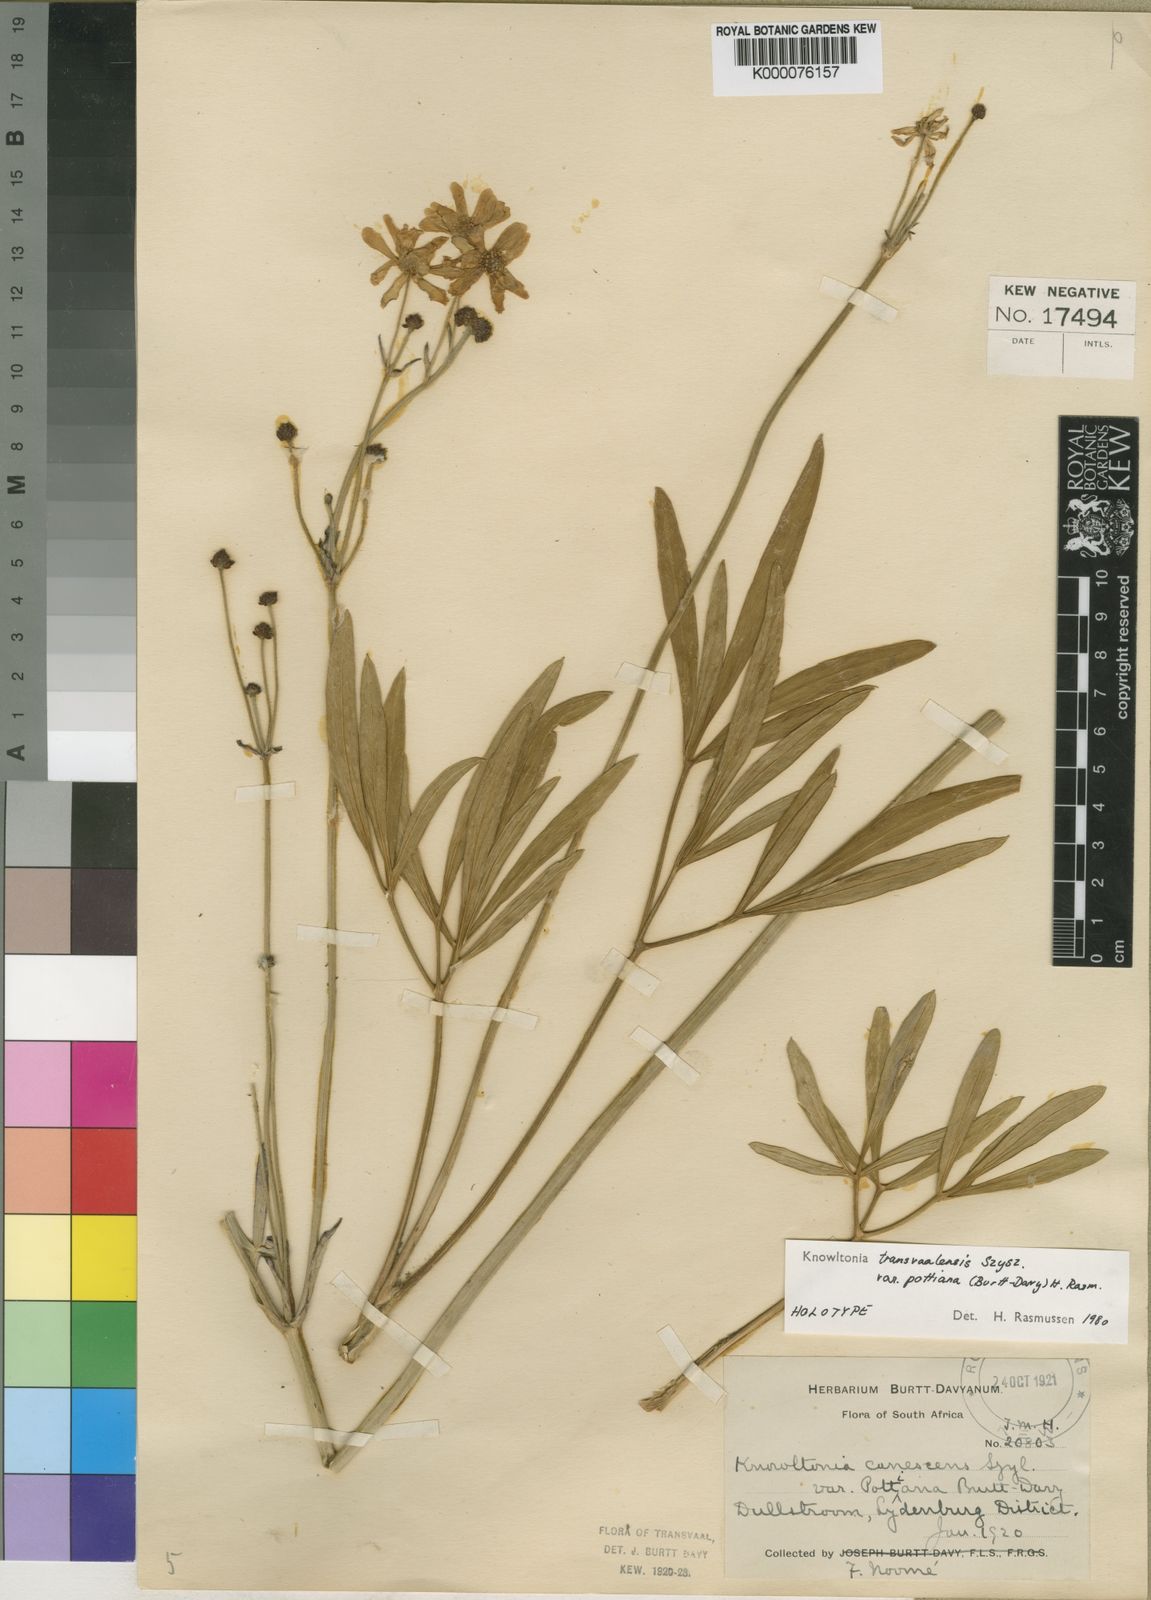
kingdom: Plantae
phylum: Tracheophyta
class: Magnoliopsida
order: Ranunculales
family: Ranunculaceae
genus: Knowltonia
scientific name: Knowltonia transvaalensis
